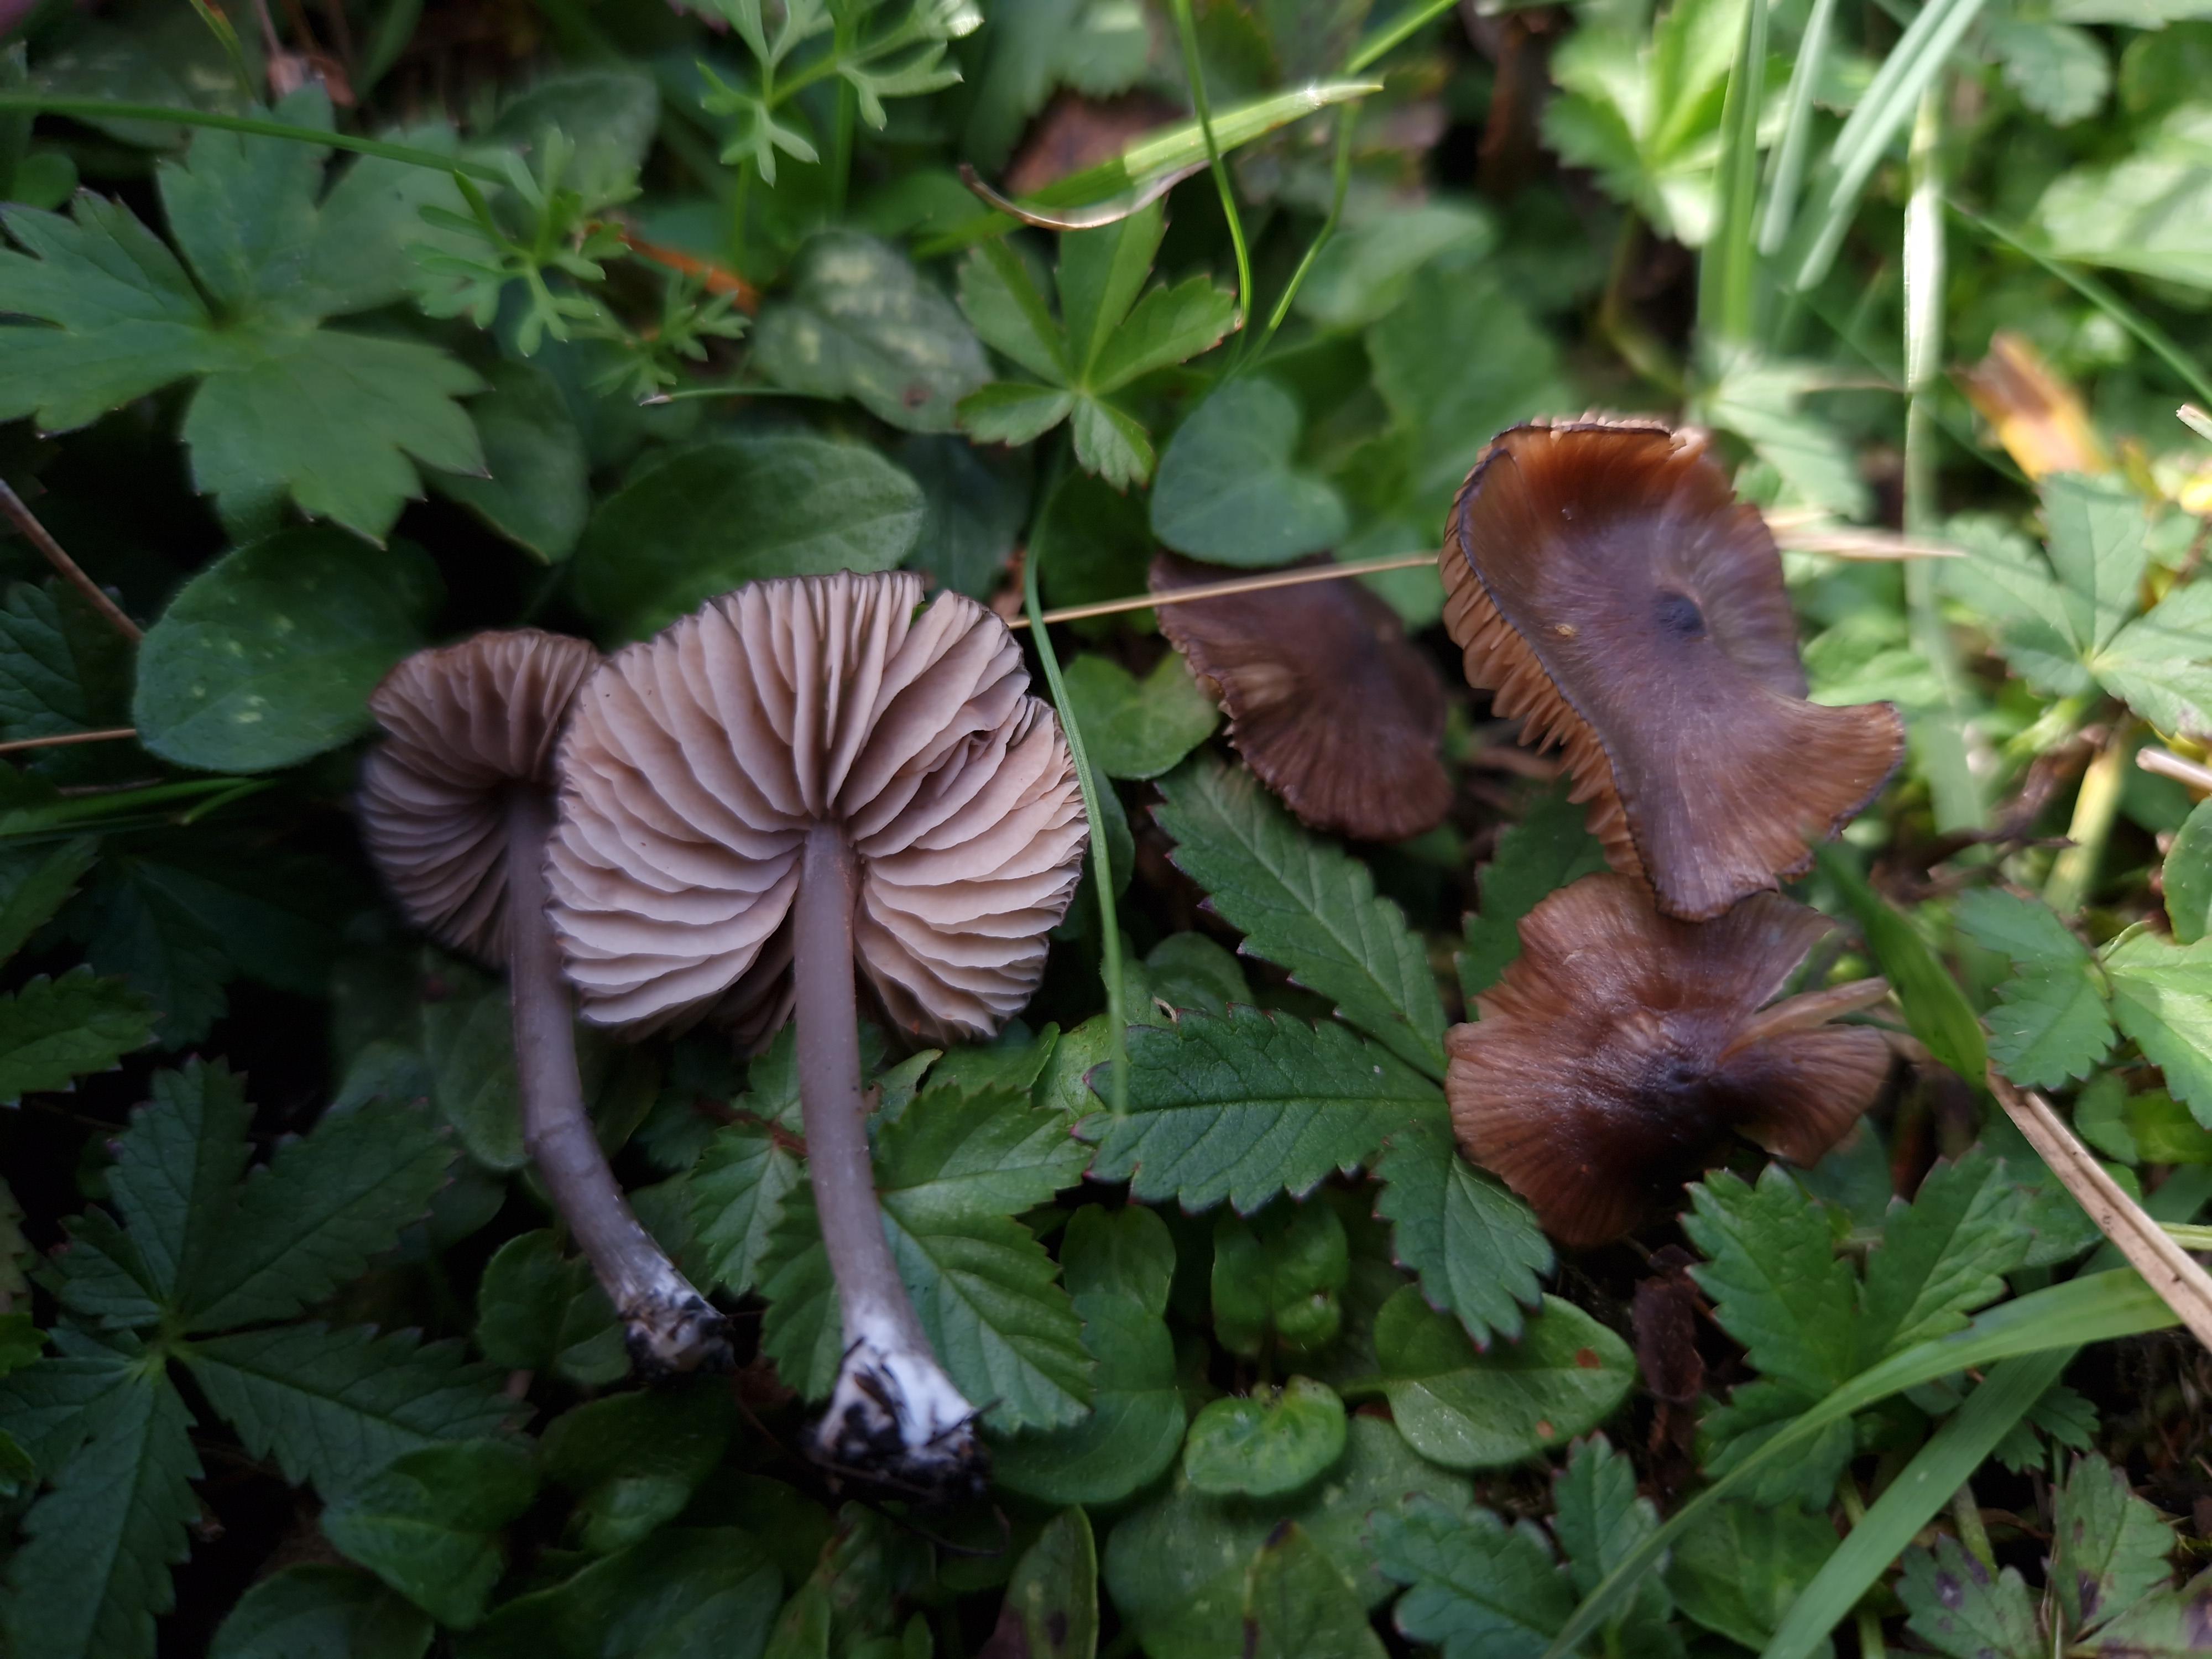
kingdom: Fungi
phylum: Basidiomycota
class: Agaricomycetes
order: Agaricales
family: Entolomataceae
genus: Entoloma
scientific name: Entoloma
